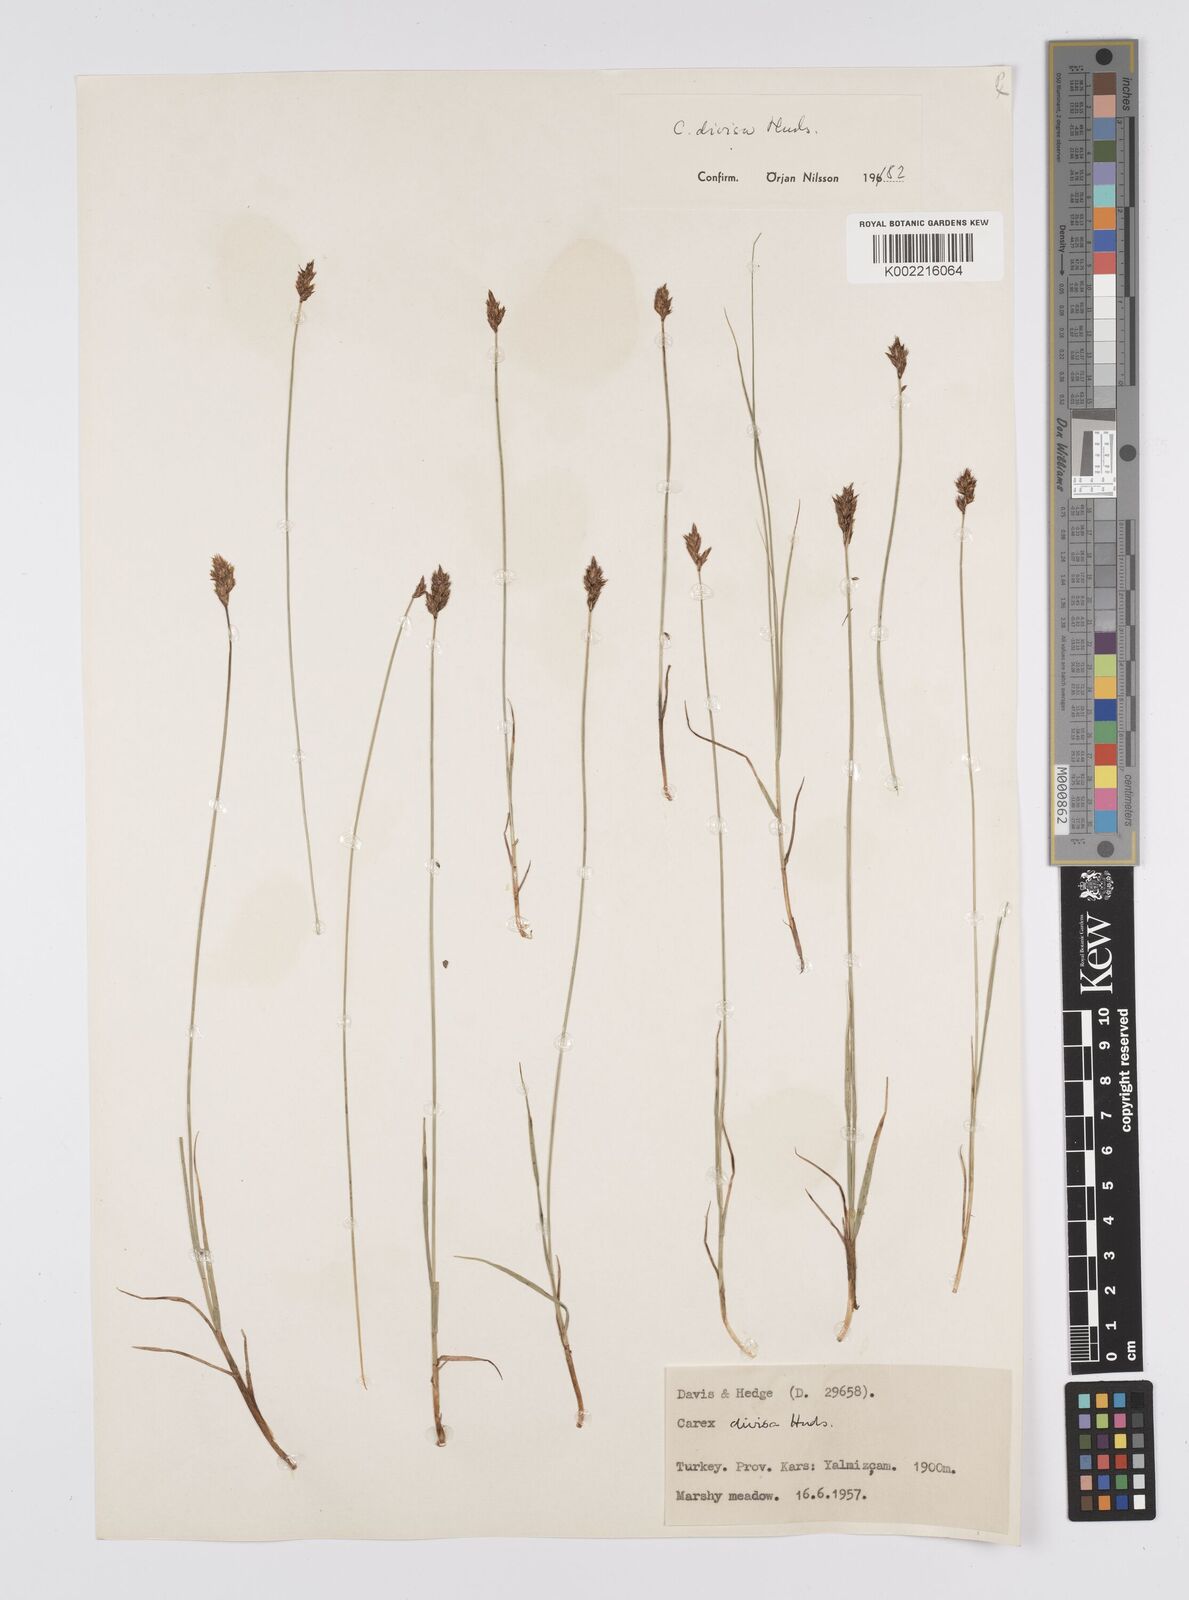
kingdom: Plantae
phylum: Tracheophyta
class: Liliopsida
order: Poales
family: Cyperaceae
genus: Carex
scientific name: Carex divisa
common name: Divided sedge
